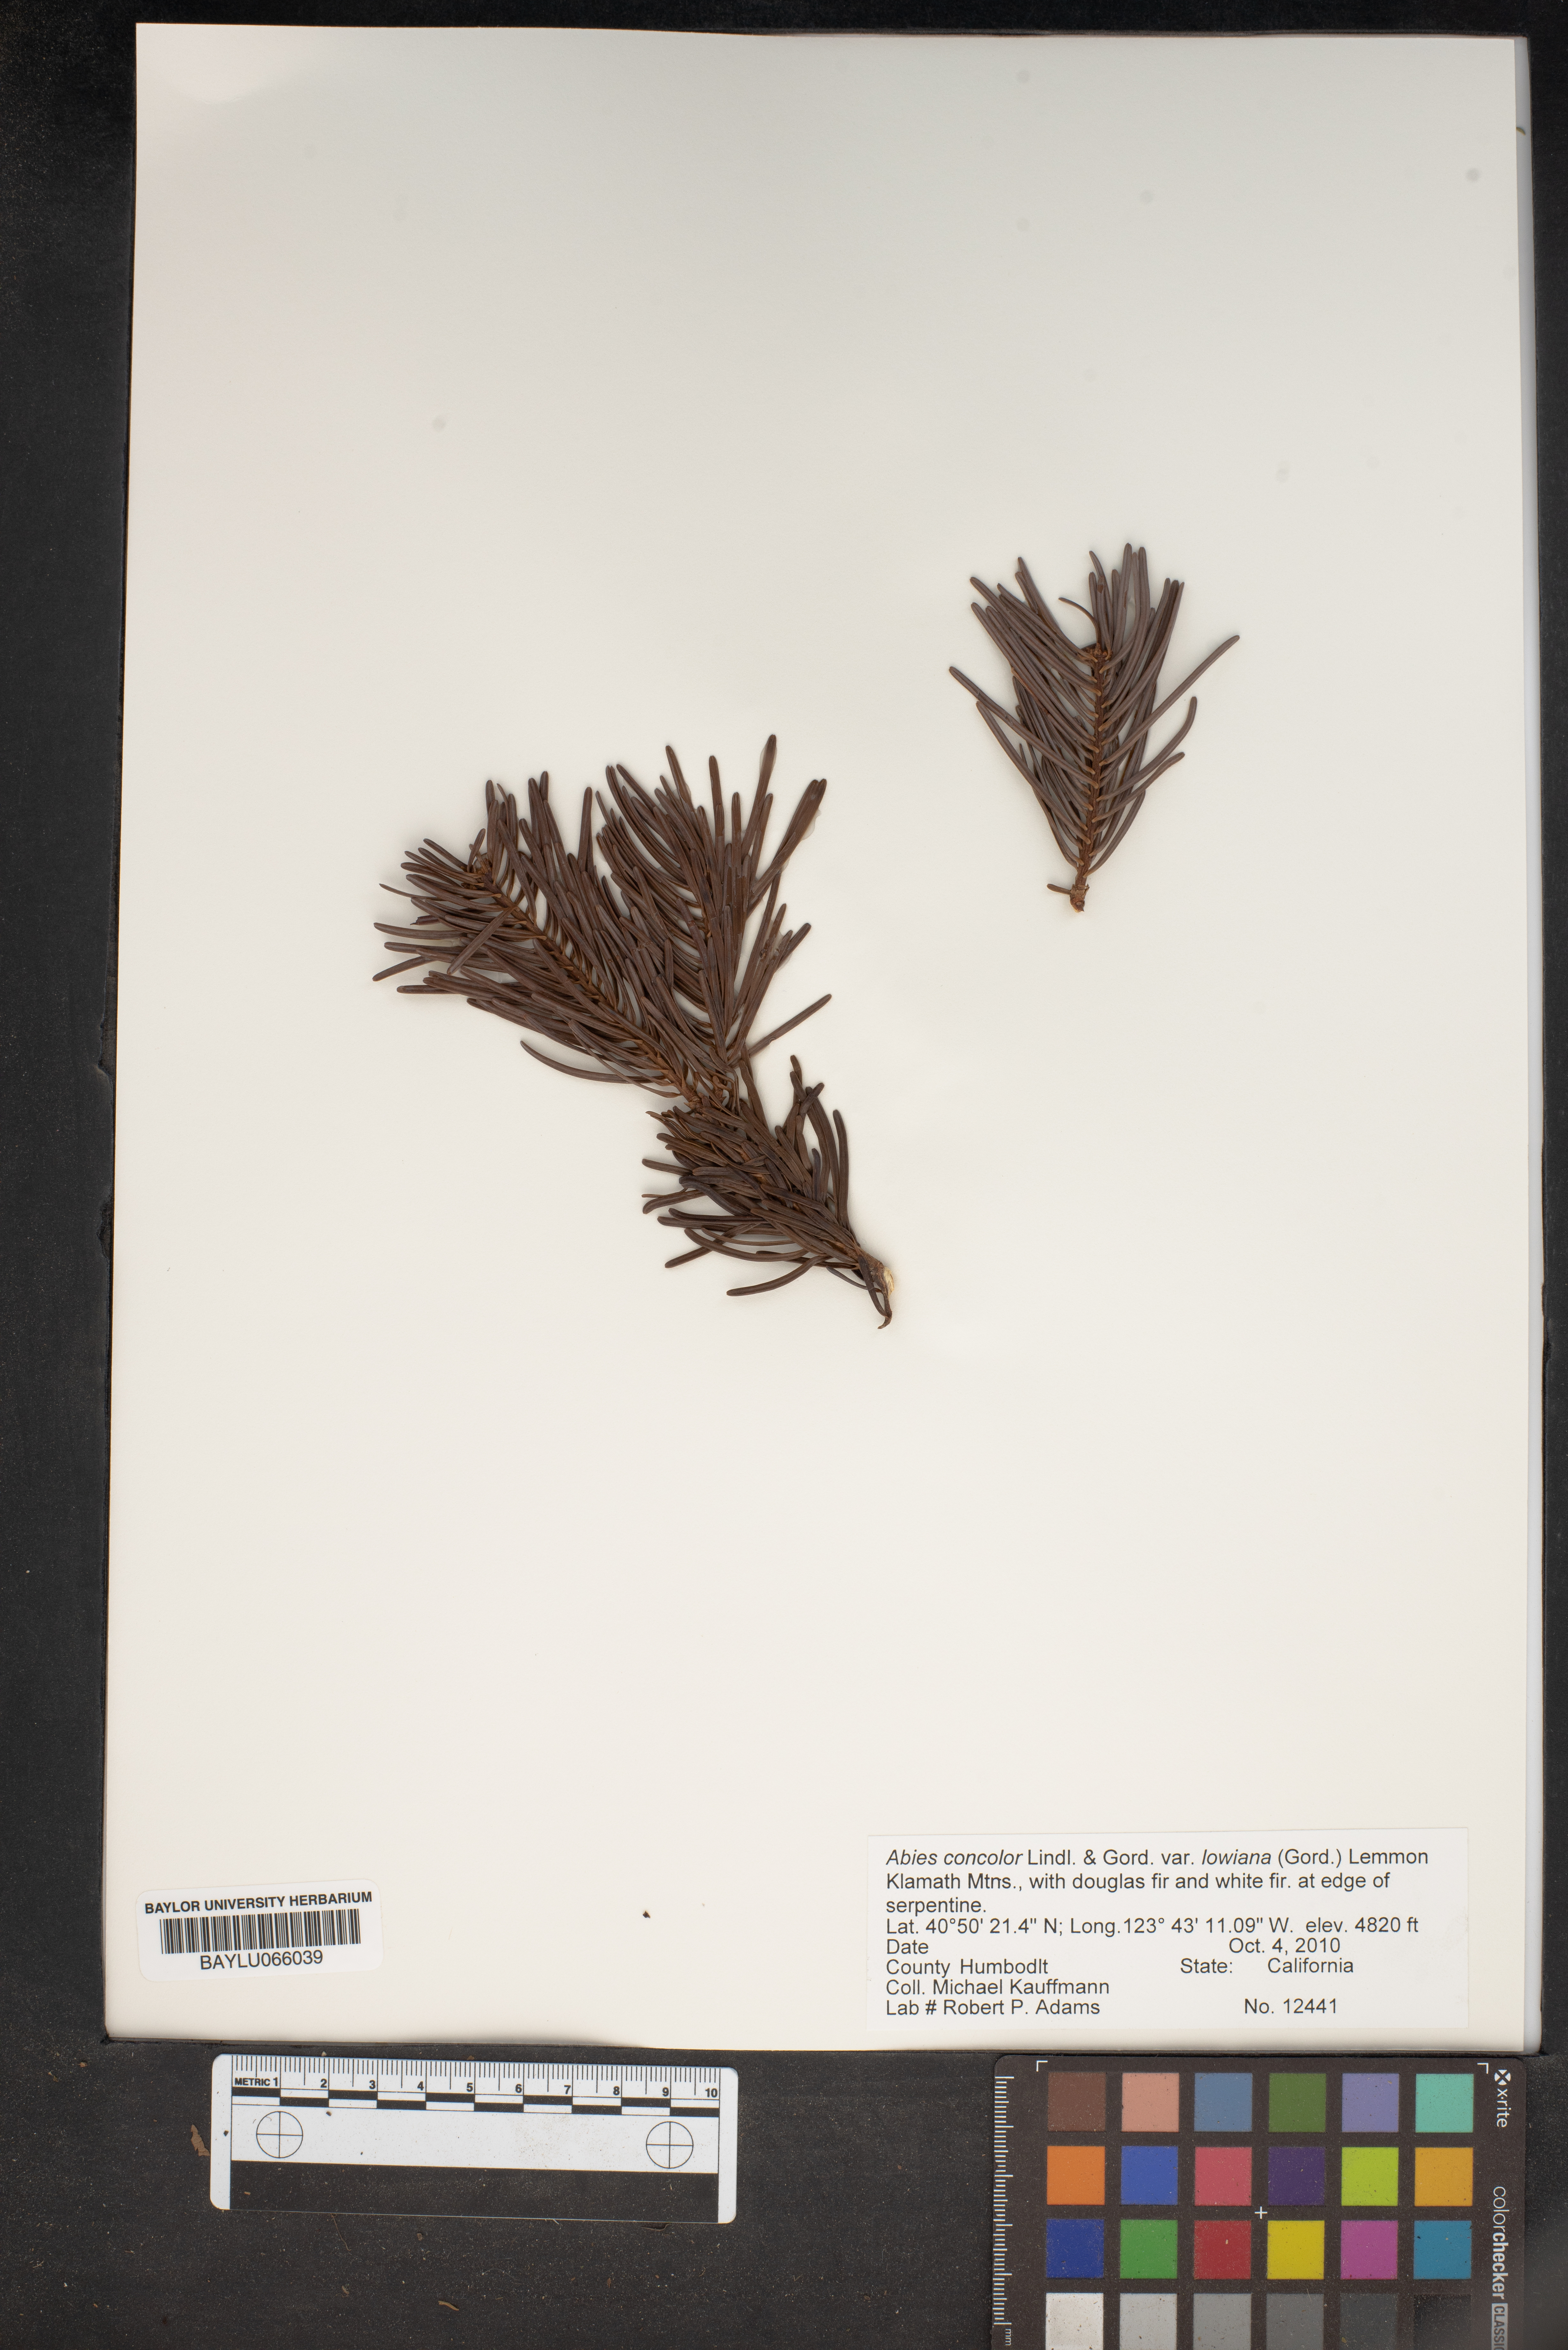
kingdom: Plantae
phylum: Tracheophyta
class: Pinopsida
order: Pinales
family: Pinaceae
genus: Abies
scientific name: Abies concolor
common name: Colorado fir
